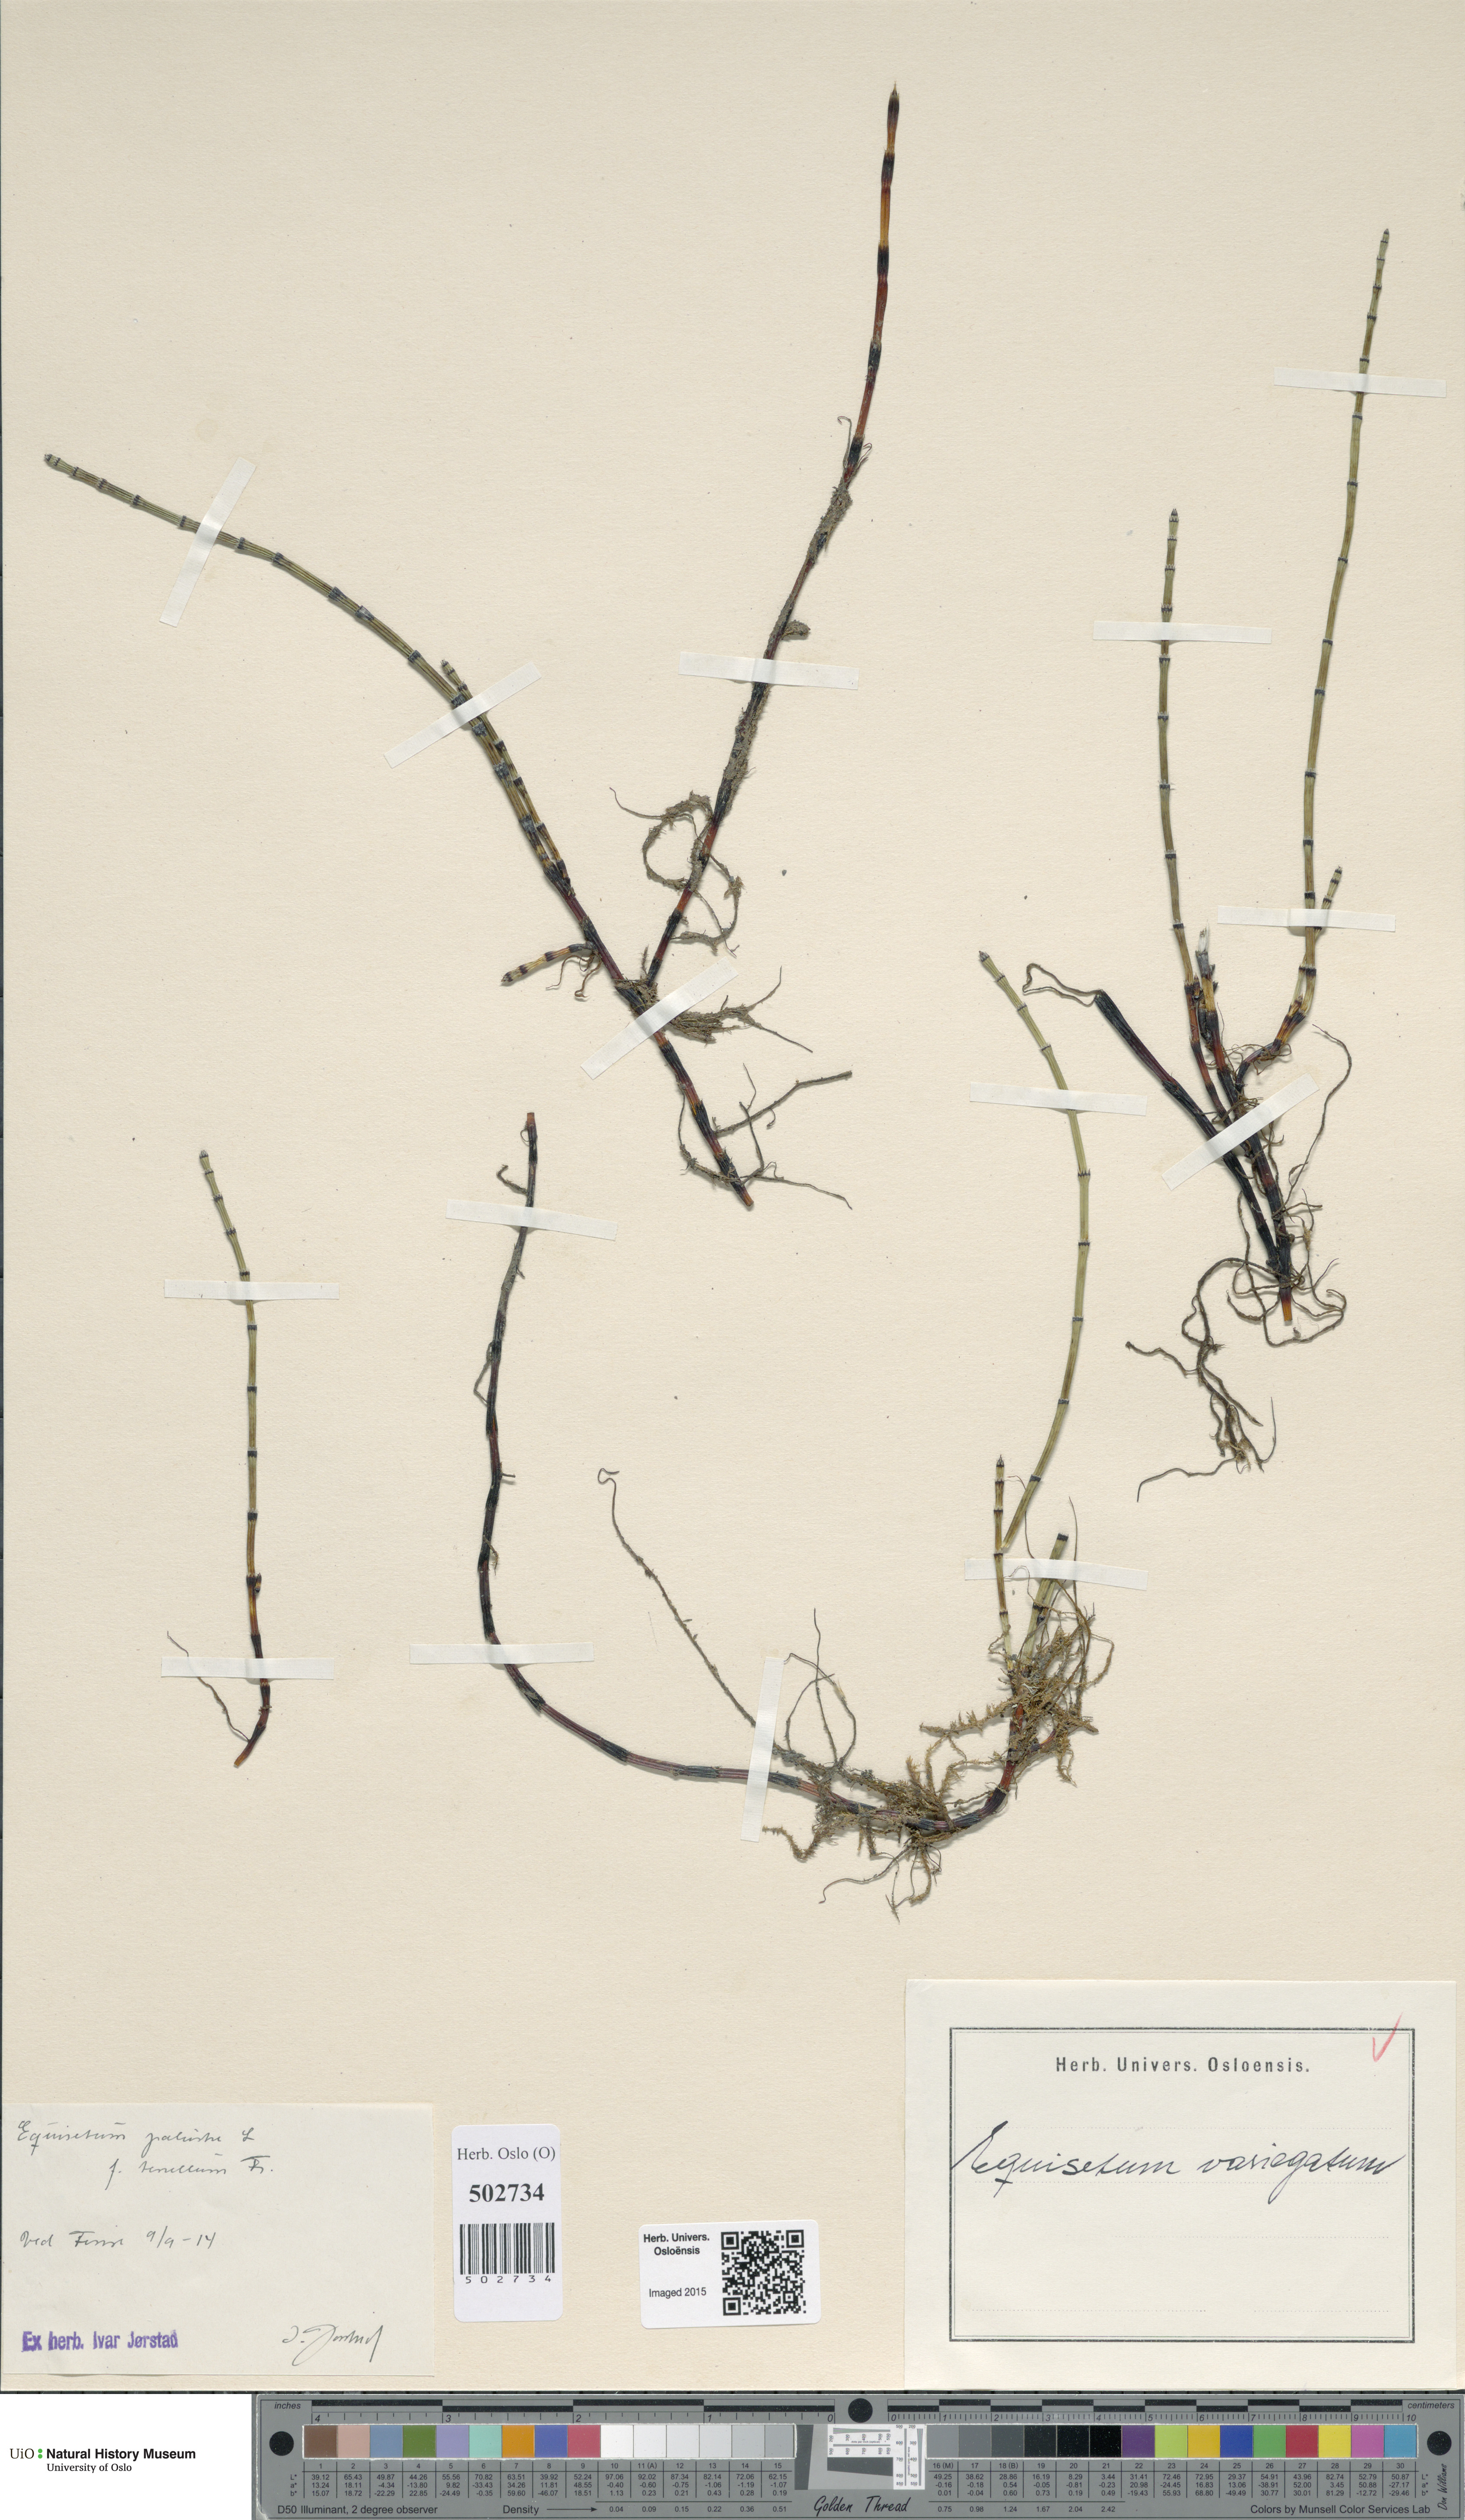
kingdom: Plantae
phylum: Tracheophyta
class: Polypodiopsida
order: Equisetales
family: Equisetaceae
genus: Equisetum
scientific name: Equisetum variegatum
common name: Variegated horsetail
